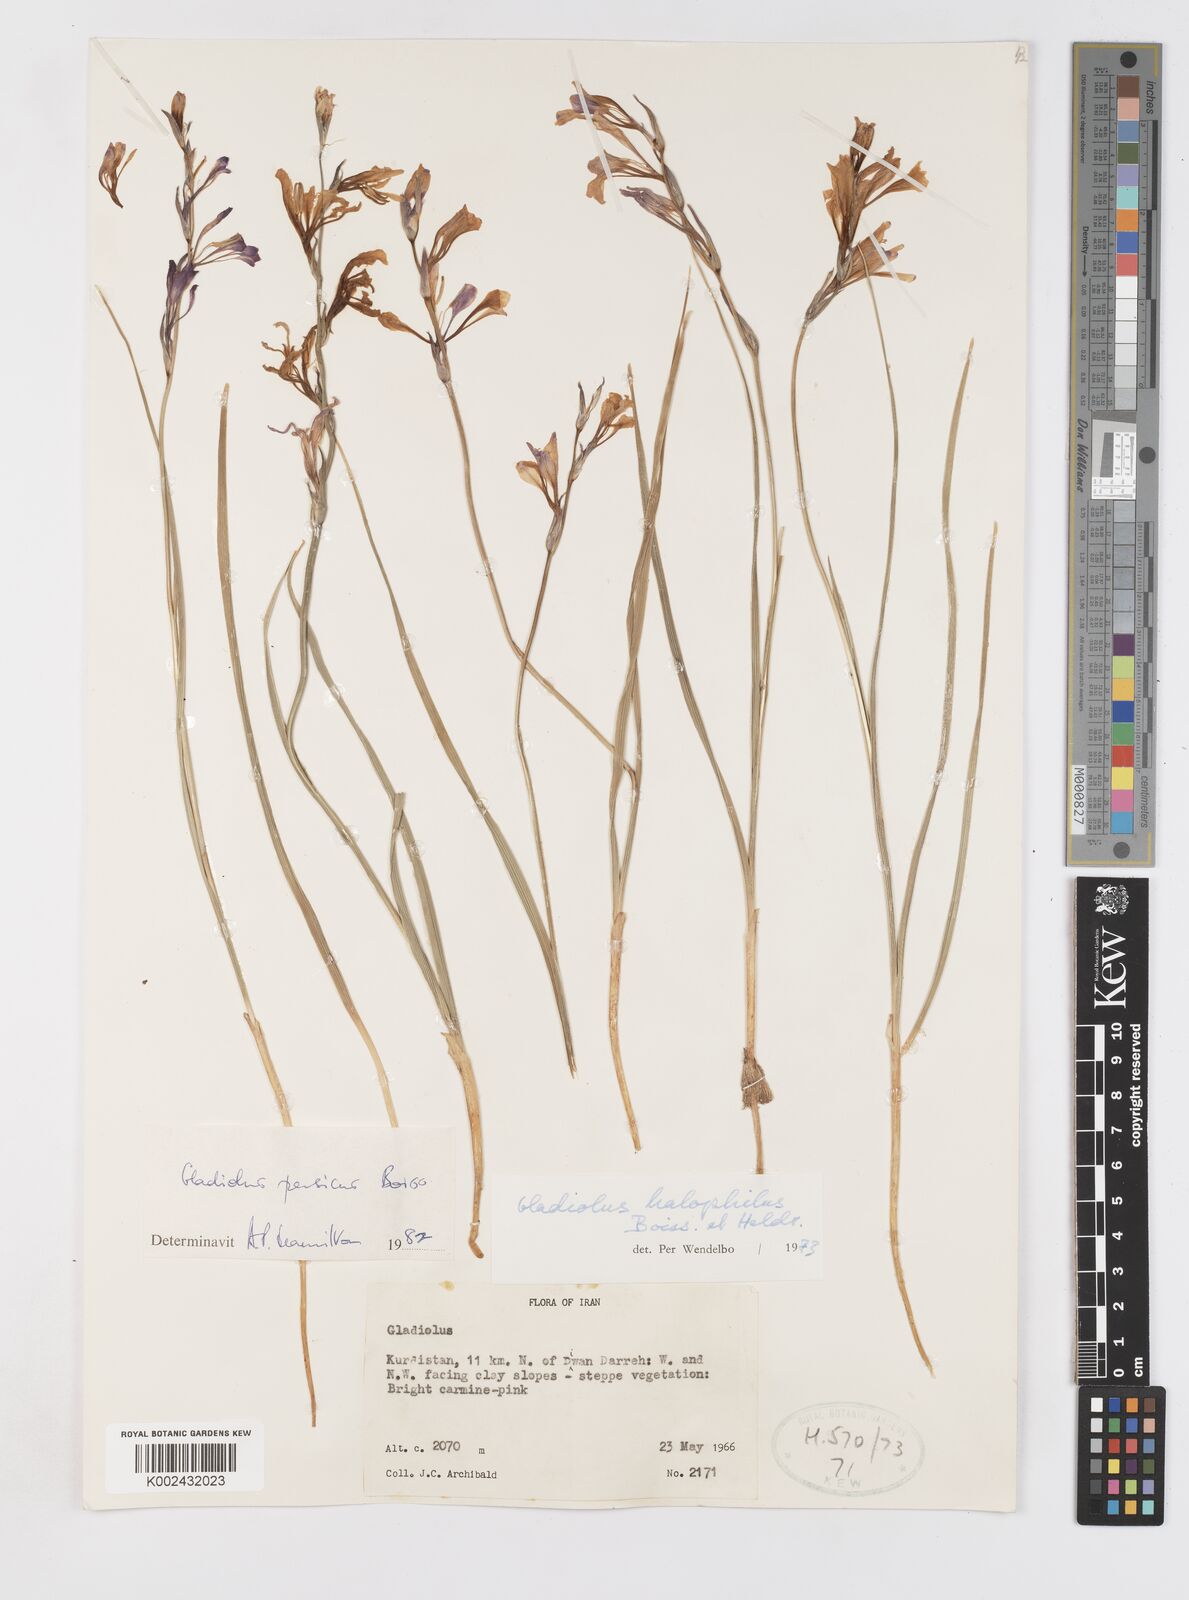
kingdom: Plantae
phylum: Tracheophyta
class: Liliopsida
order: Asparagales
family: Iridaceae
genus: Gladiolus
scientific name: Gladiolus persicus
